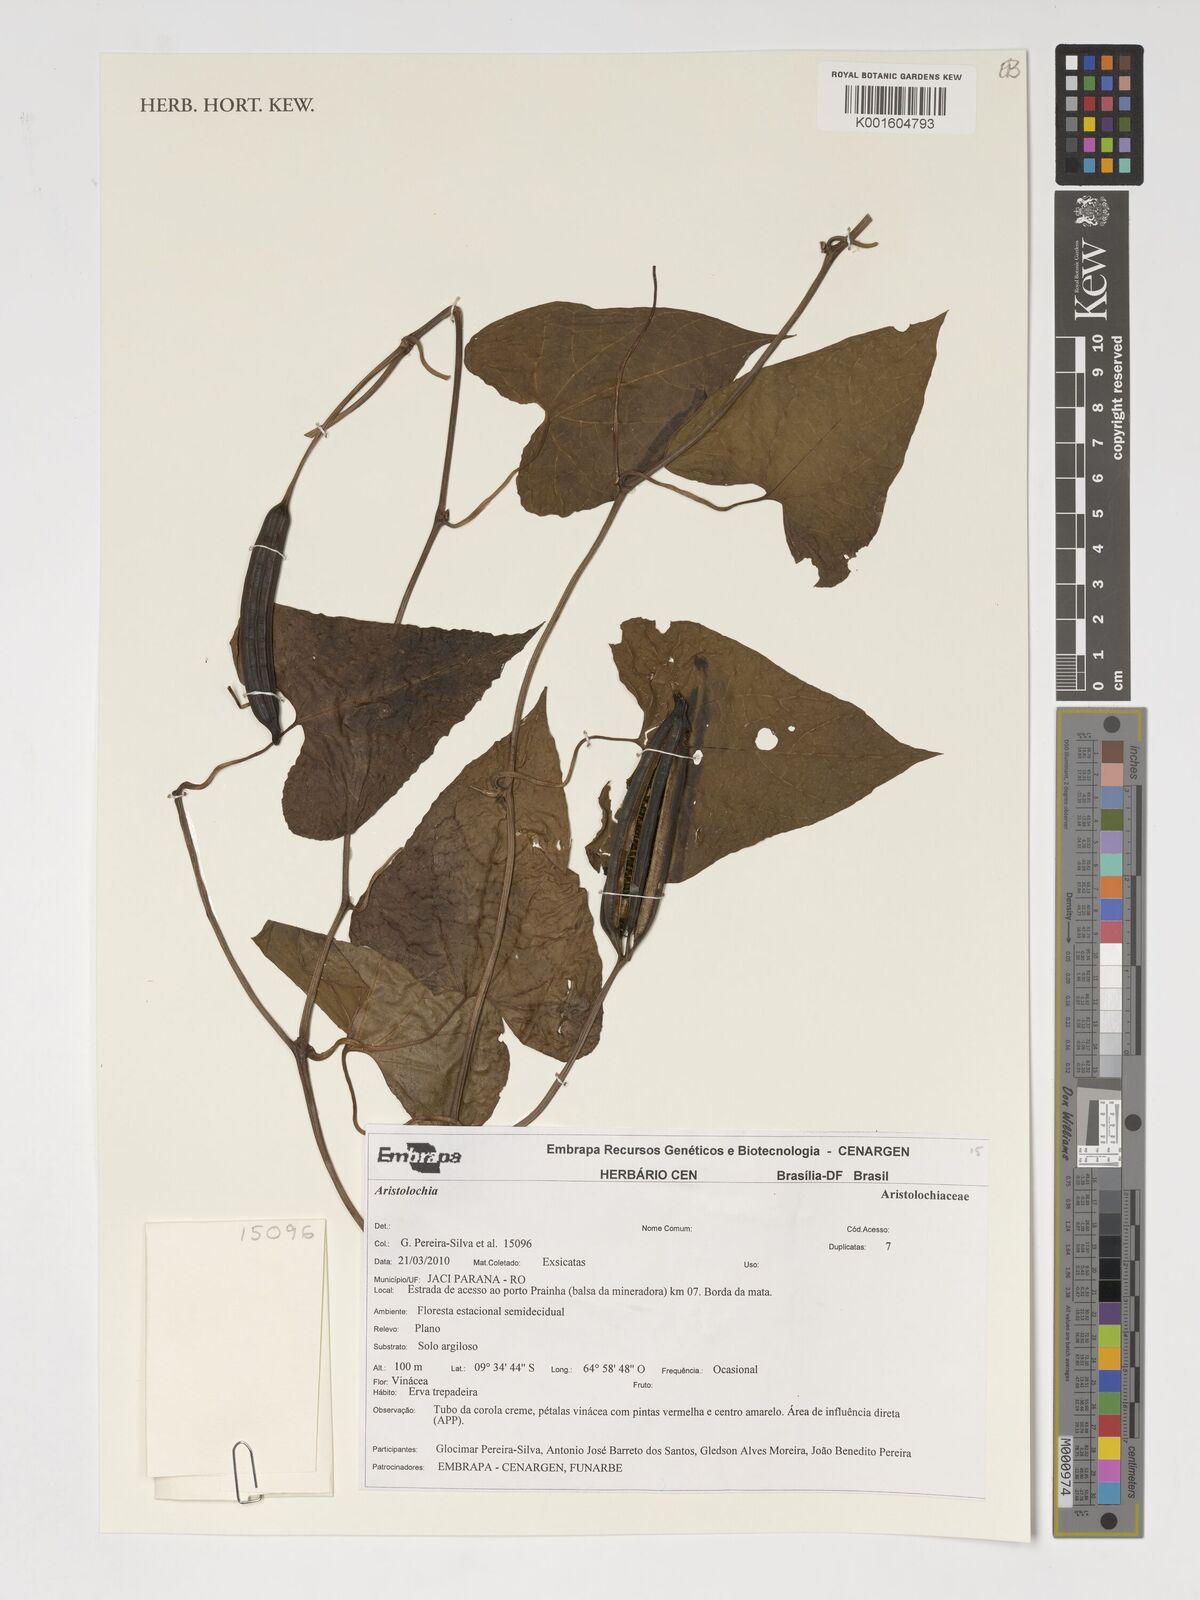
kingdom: Plantae
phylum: Tracheophyta
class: Magnoliopsida
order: Piperales
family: Aristolochiaceae
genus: Aristolochia
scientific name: Aristolochia
